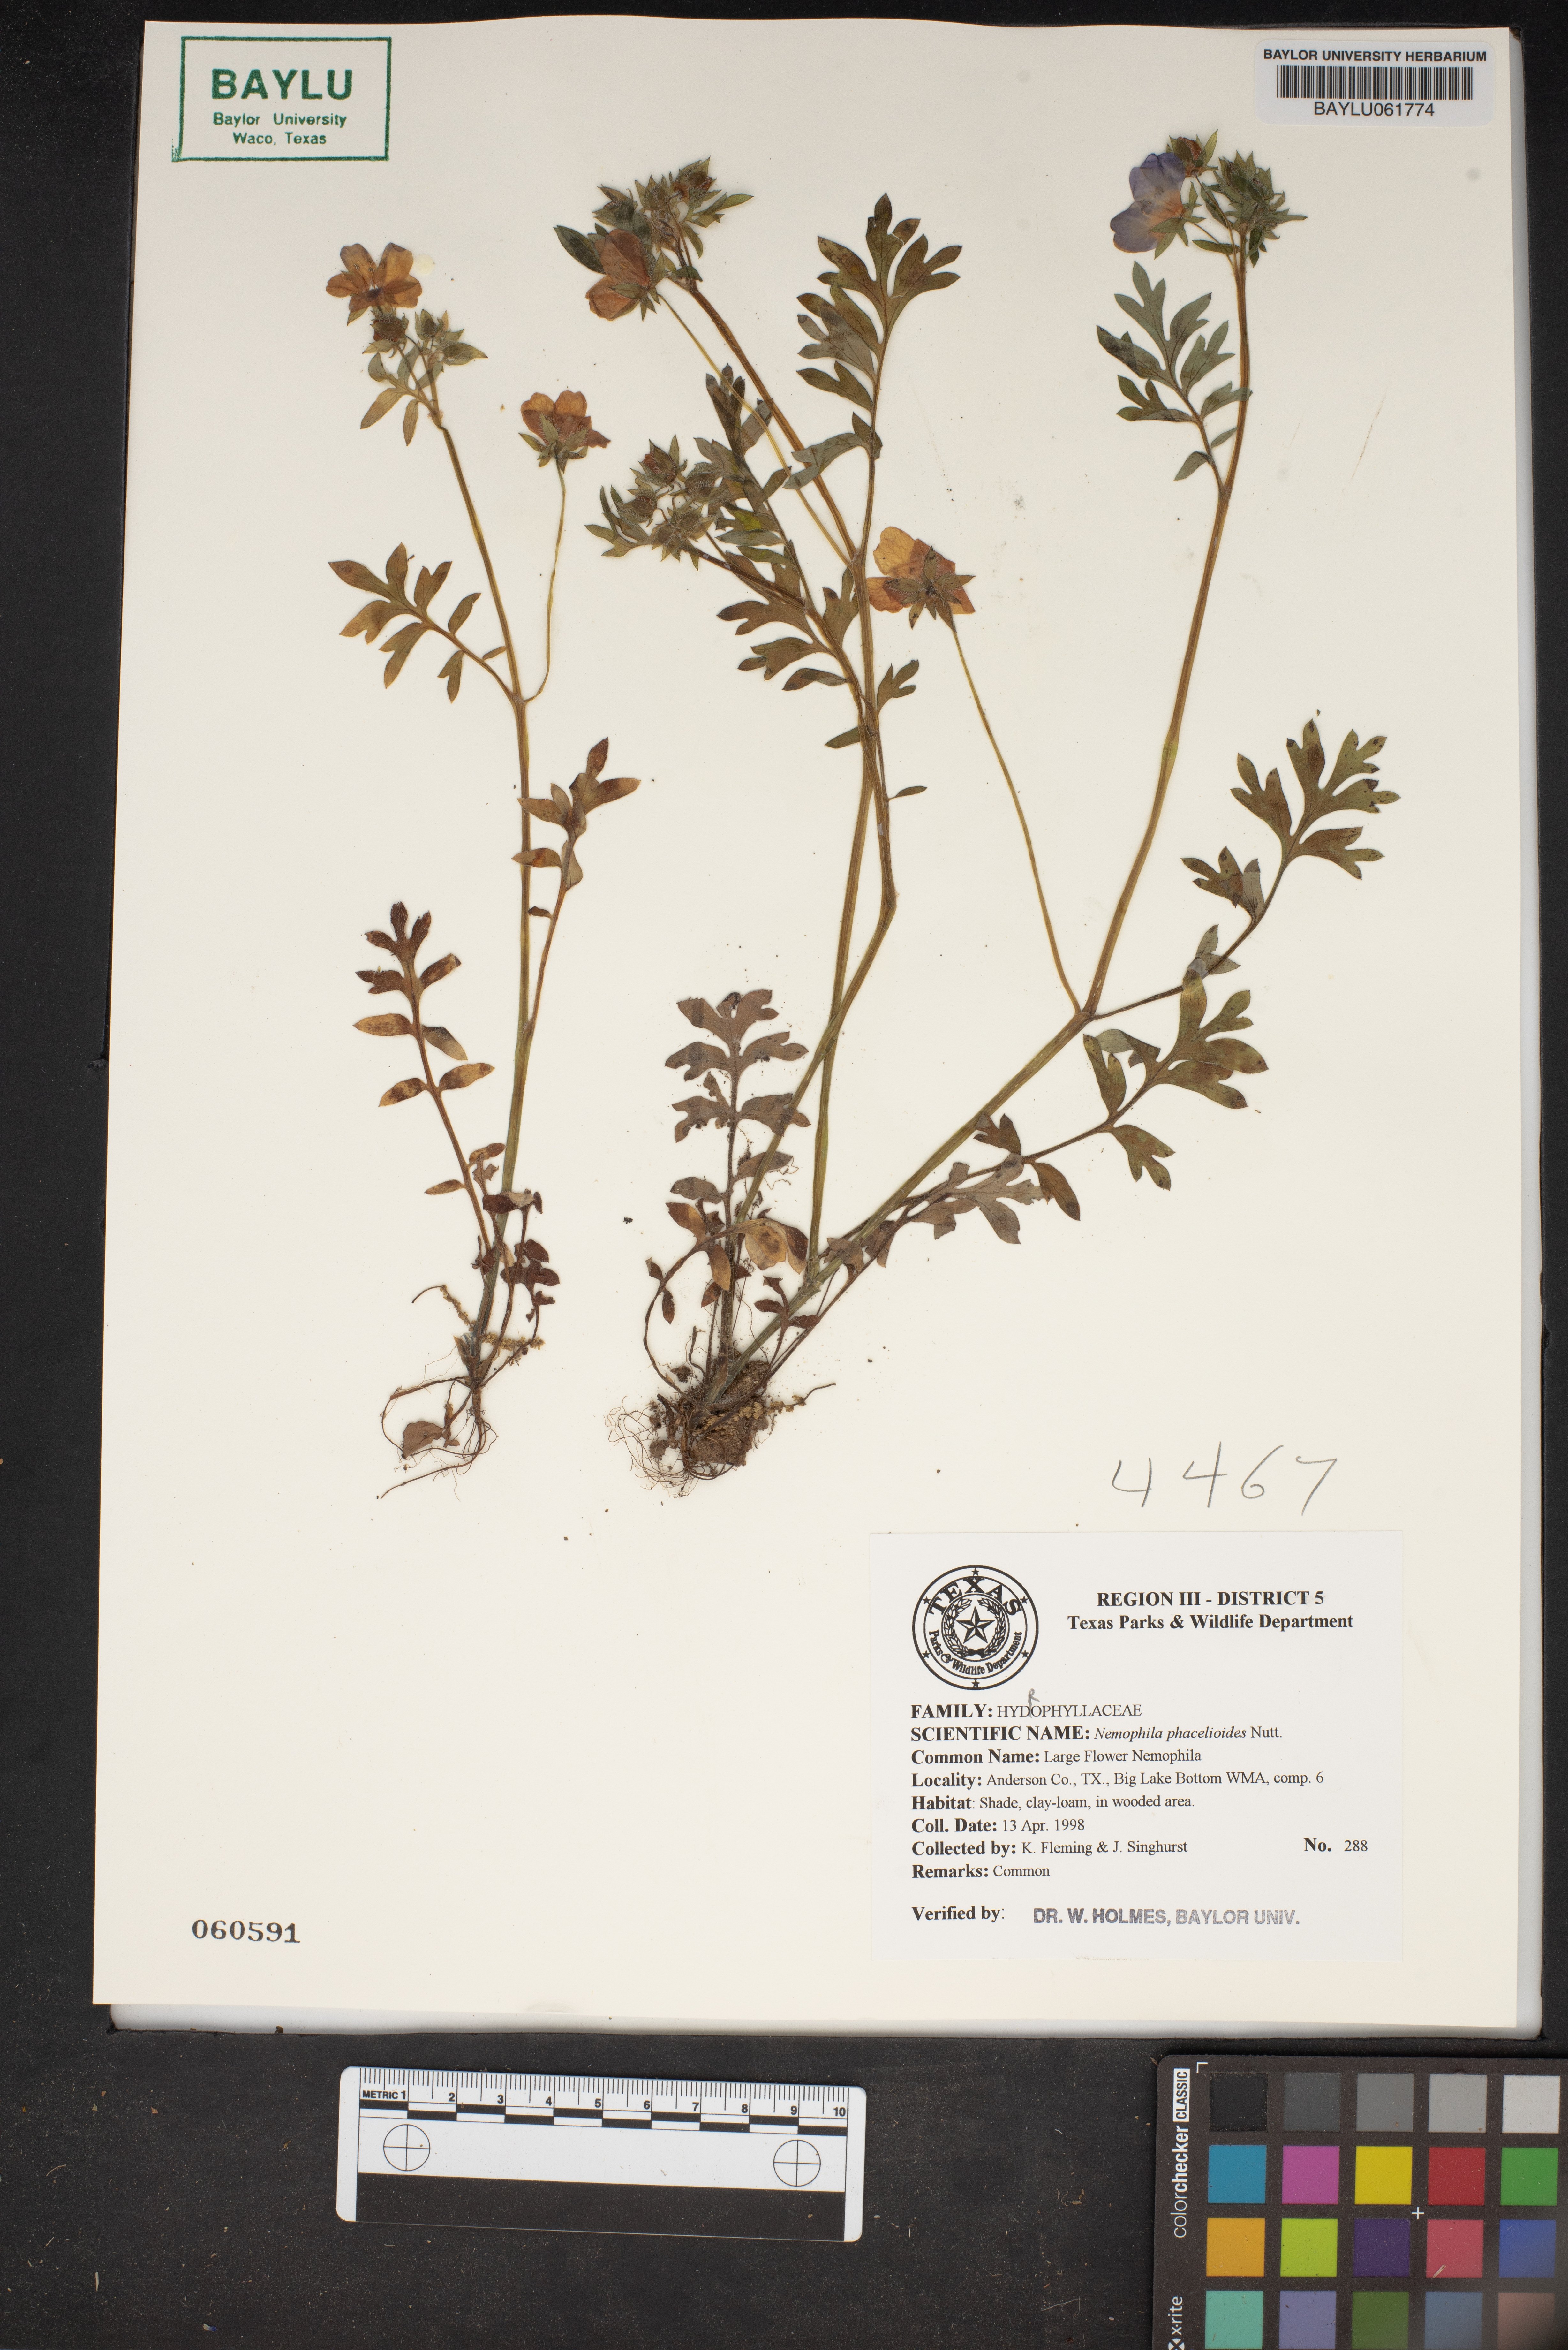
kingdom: Plantae
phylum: Tracheophyta
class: Magnoliopsida
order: Boraginales
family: Hydrophyllaceae
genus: Nemophila
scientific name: Nemophila phacelioides
